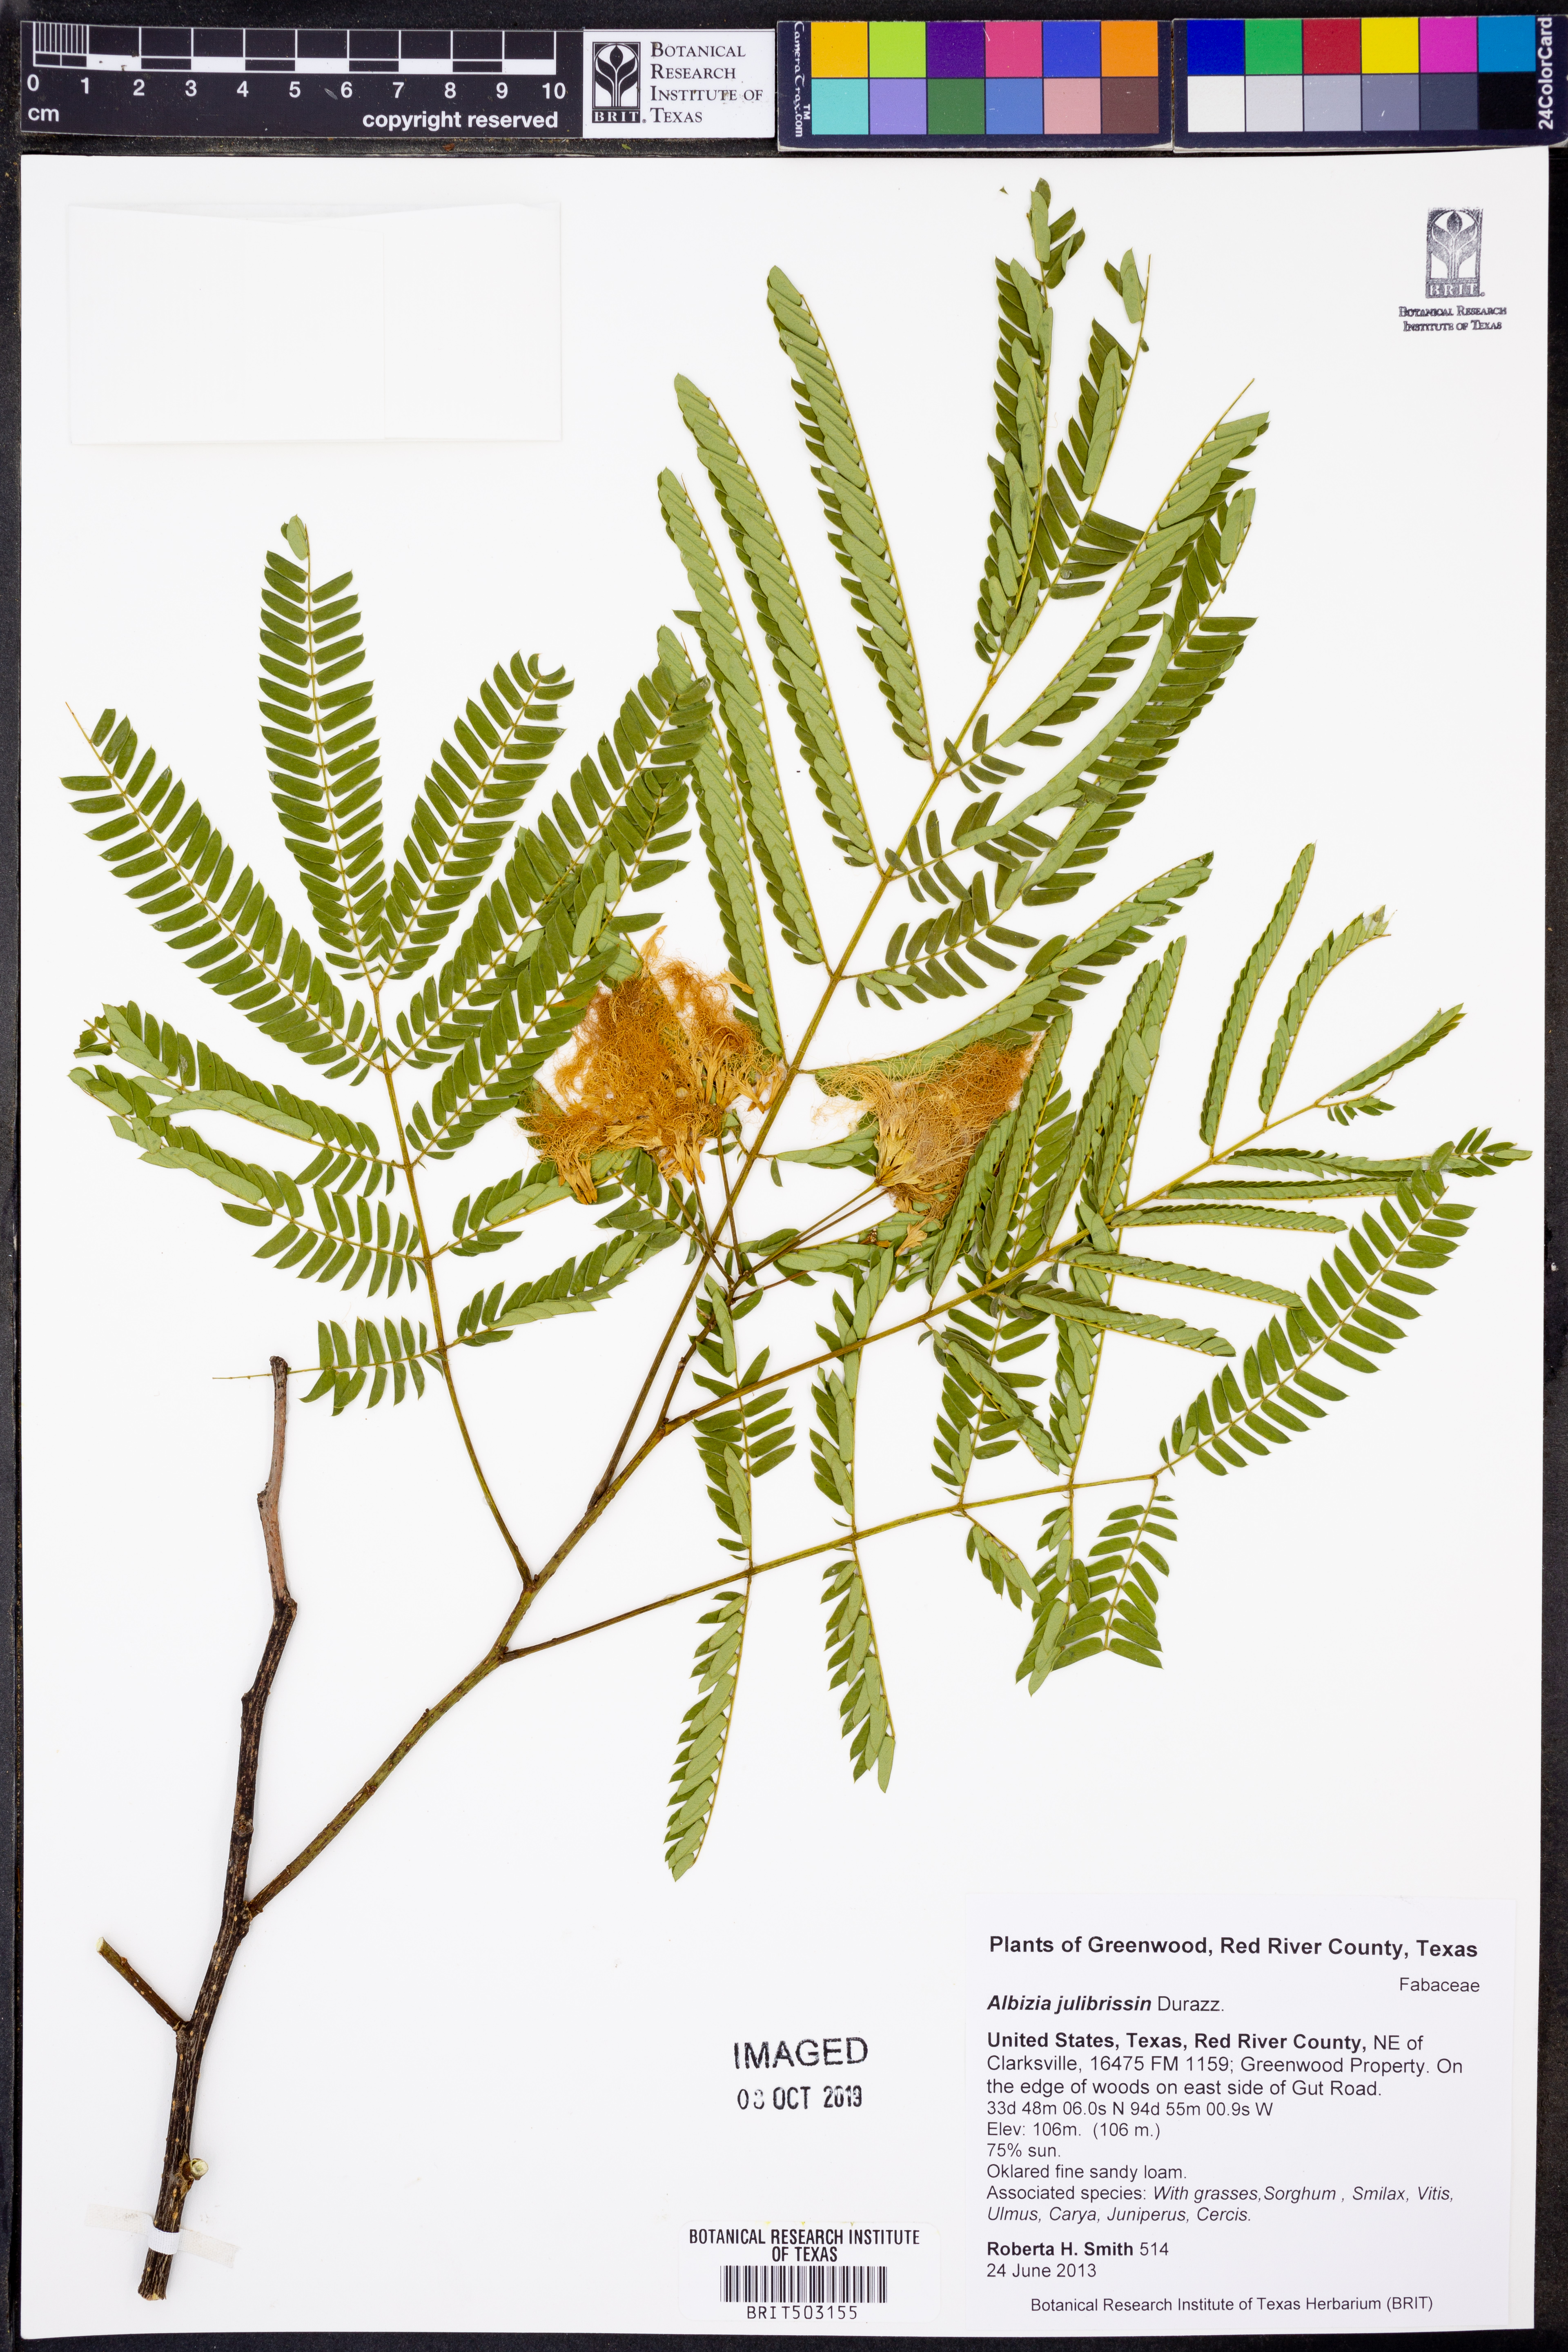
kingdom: Plantae
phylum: Tracheophyta
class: Magnoliopsida
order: Fabales
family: Fabaceae
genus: Albizia
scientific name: Albizia julibrissin
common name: Silktree
